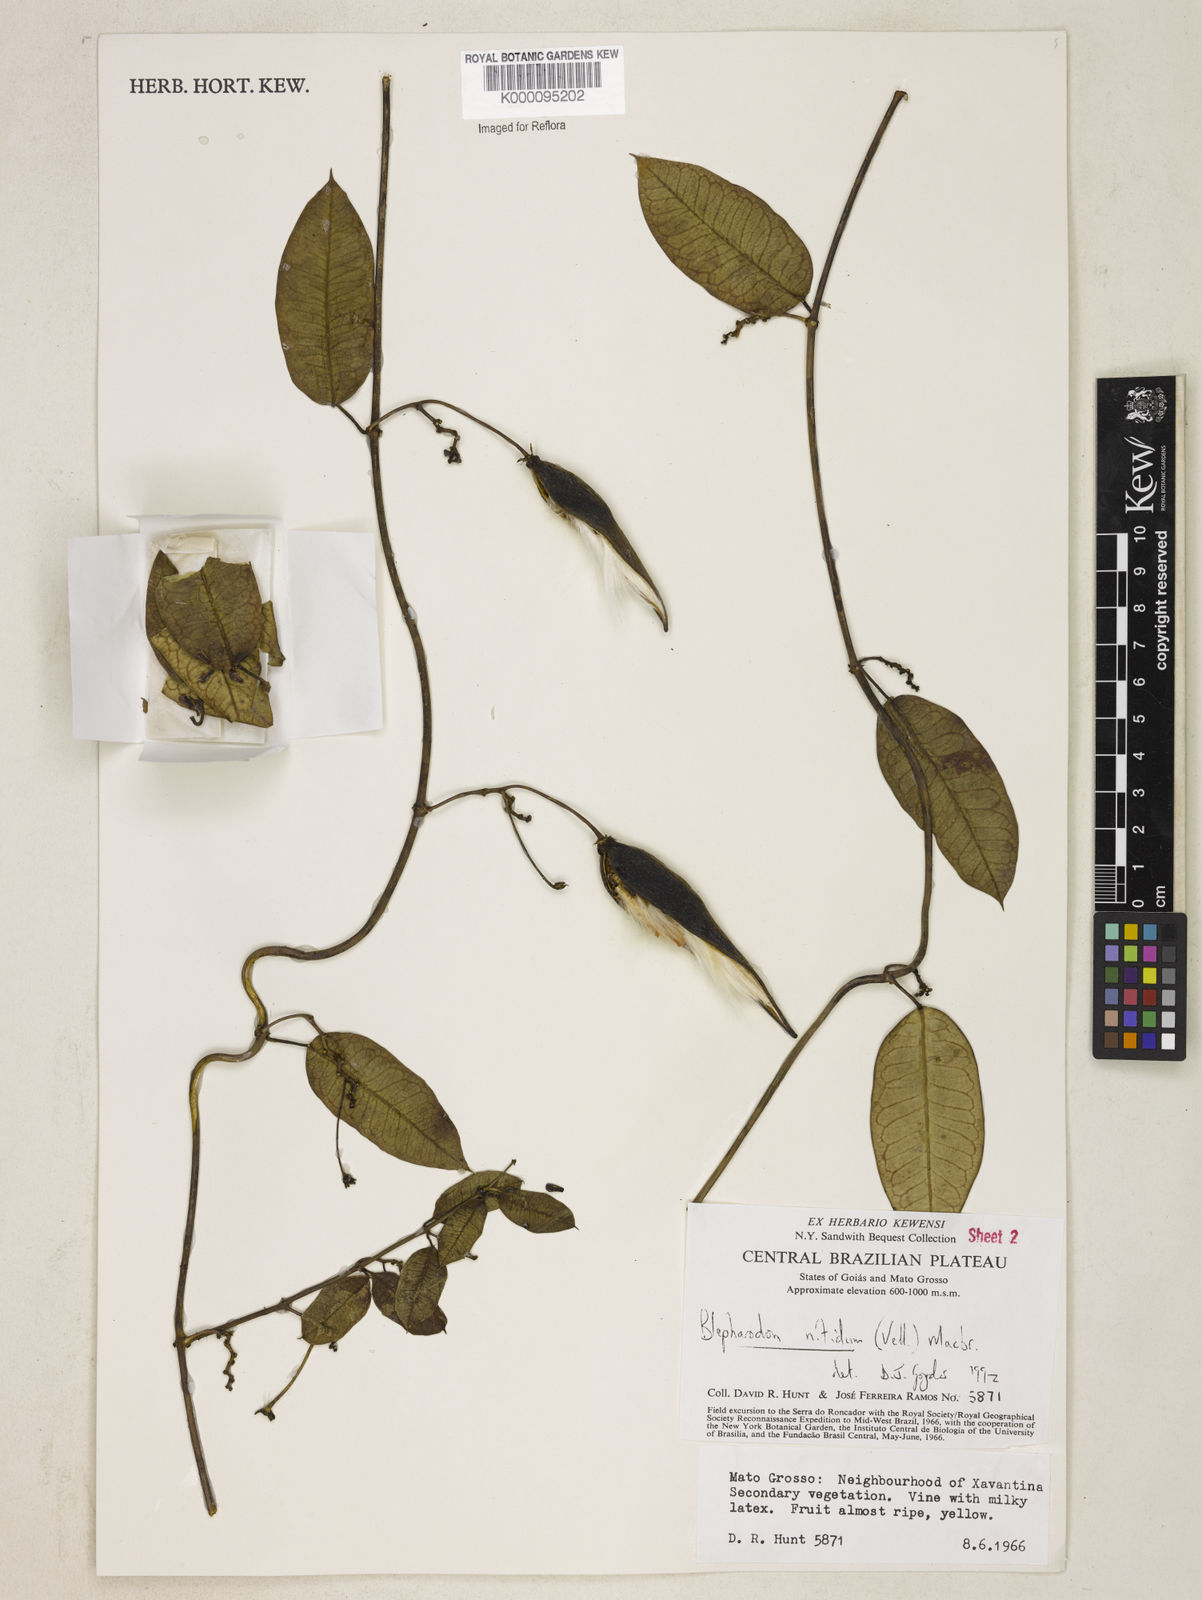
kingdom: Plantae
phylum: Tracheophyta
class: Magnoliopsida
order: Gentianales
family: Apocynaceae
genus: Blepharodon
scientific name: Blepharodon pictum
